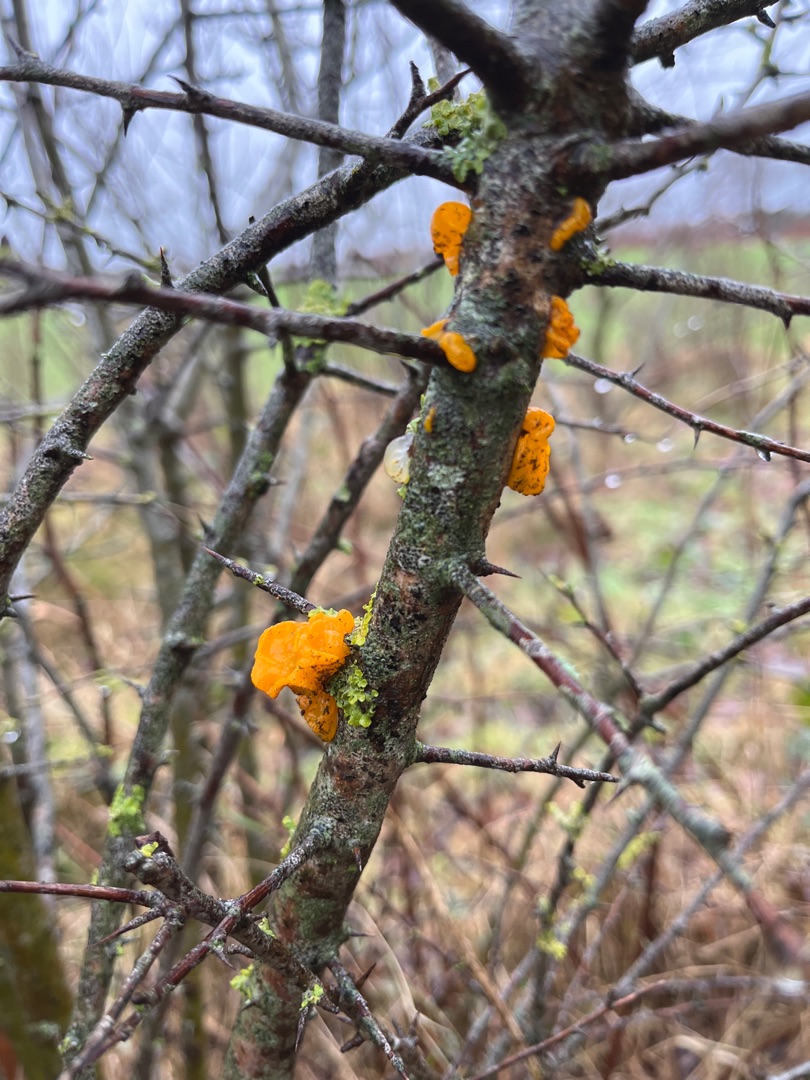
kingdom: Fungi
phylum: Basidiomycota
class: Tremellomycetes
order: Tremellales
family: Tremellaceae
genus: Tremella
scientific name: Tremella mesenterica
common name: Gul bævresvamp
